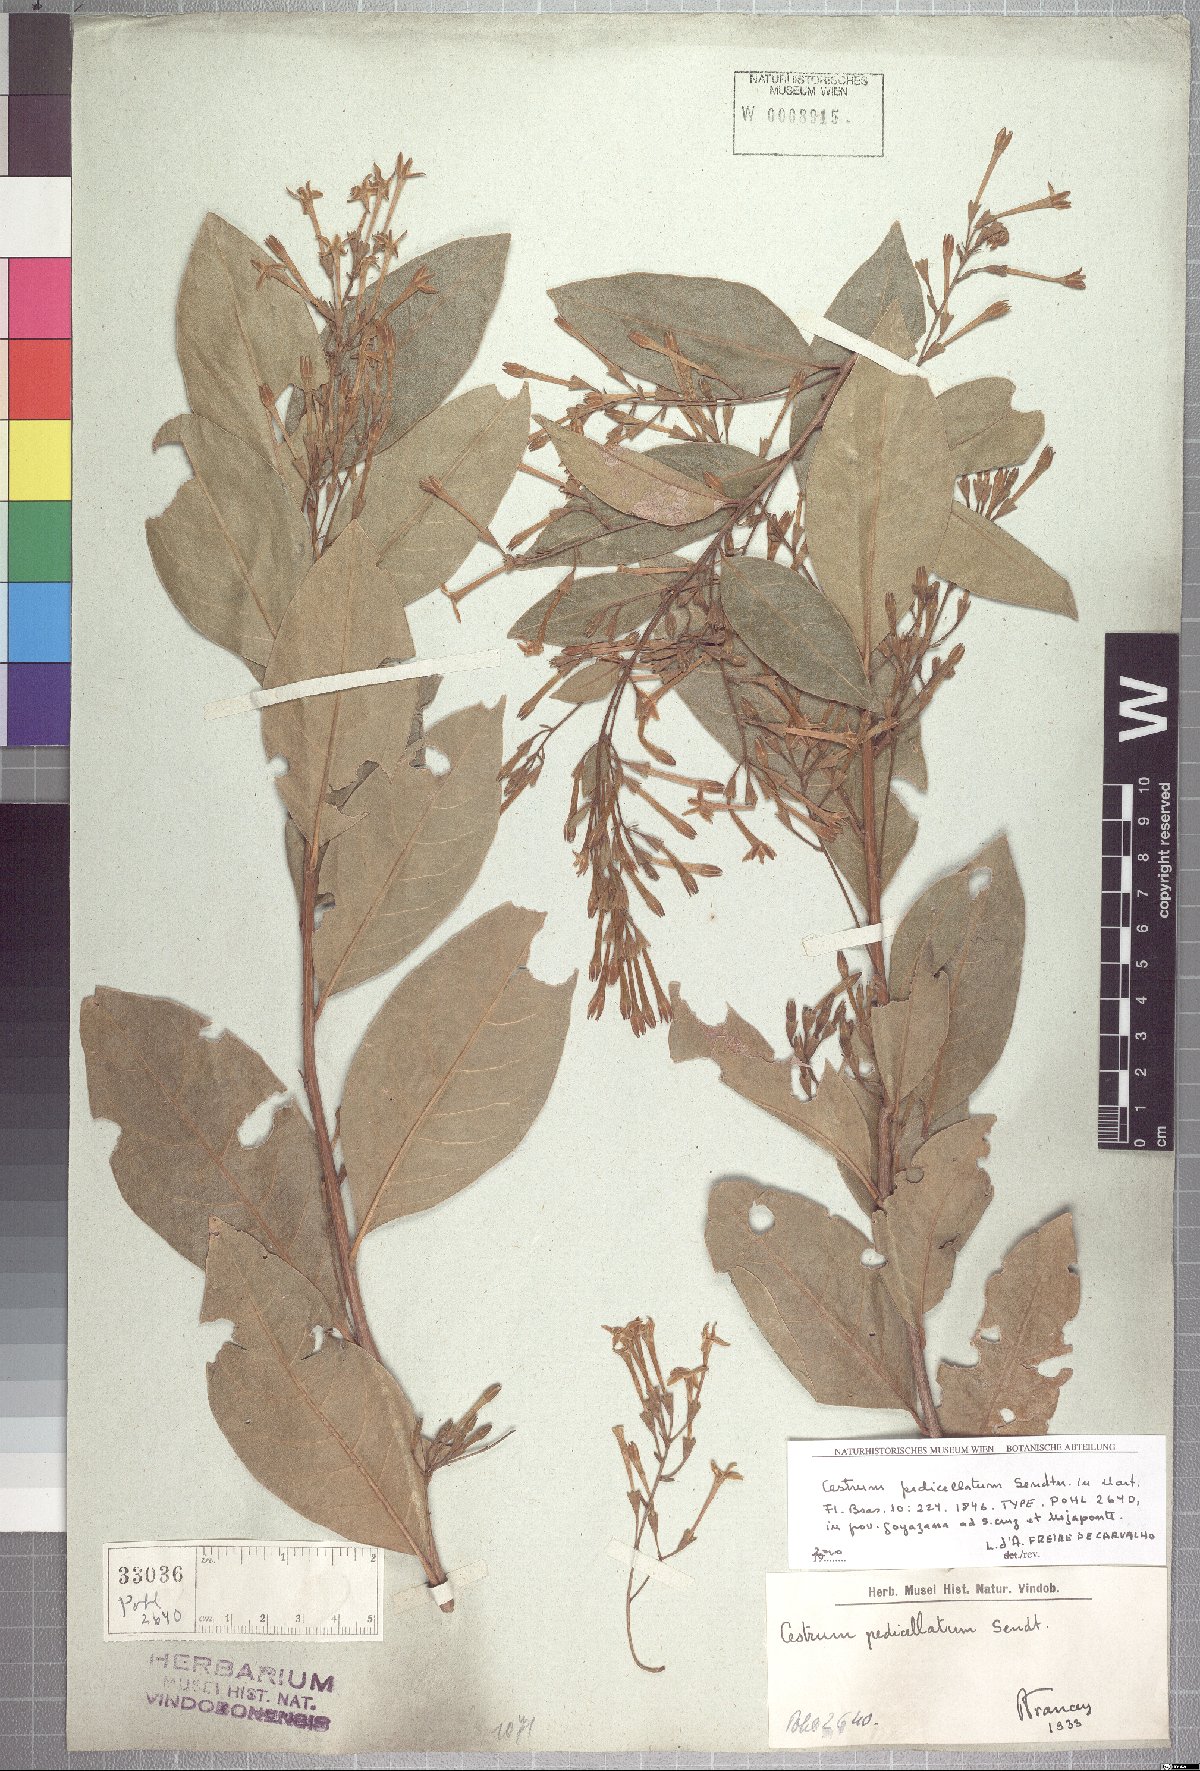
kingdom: Plantae
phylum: Tracheophyta
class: Magnoliopsida
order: Solanales
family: Solanaceae
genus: Cestrum
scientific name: Cestrum pedicellatum
